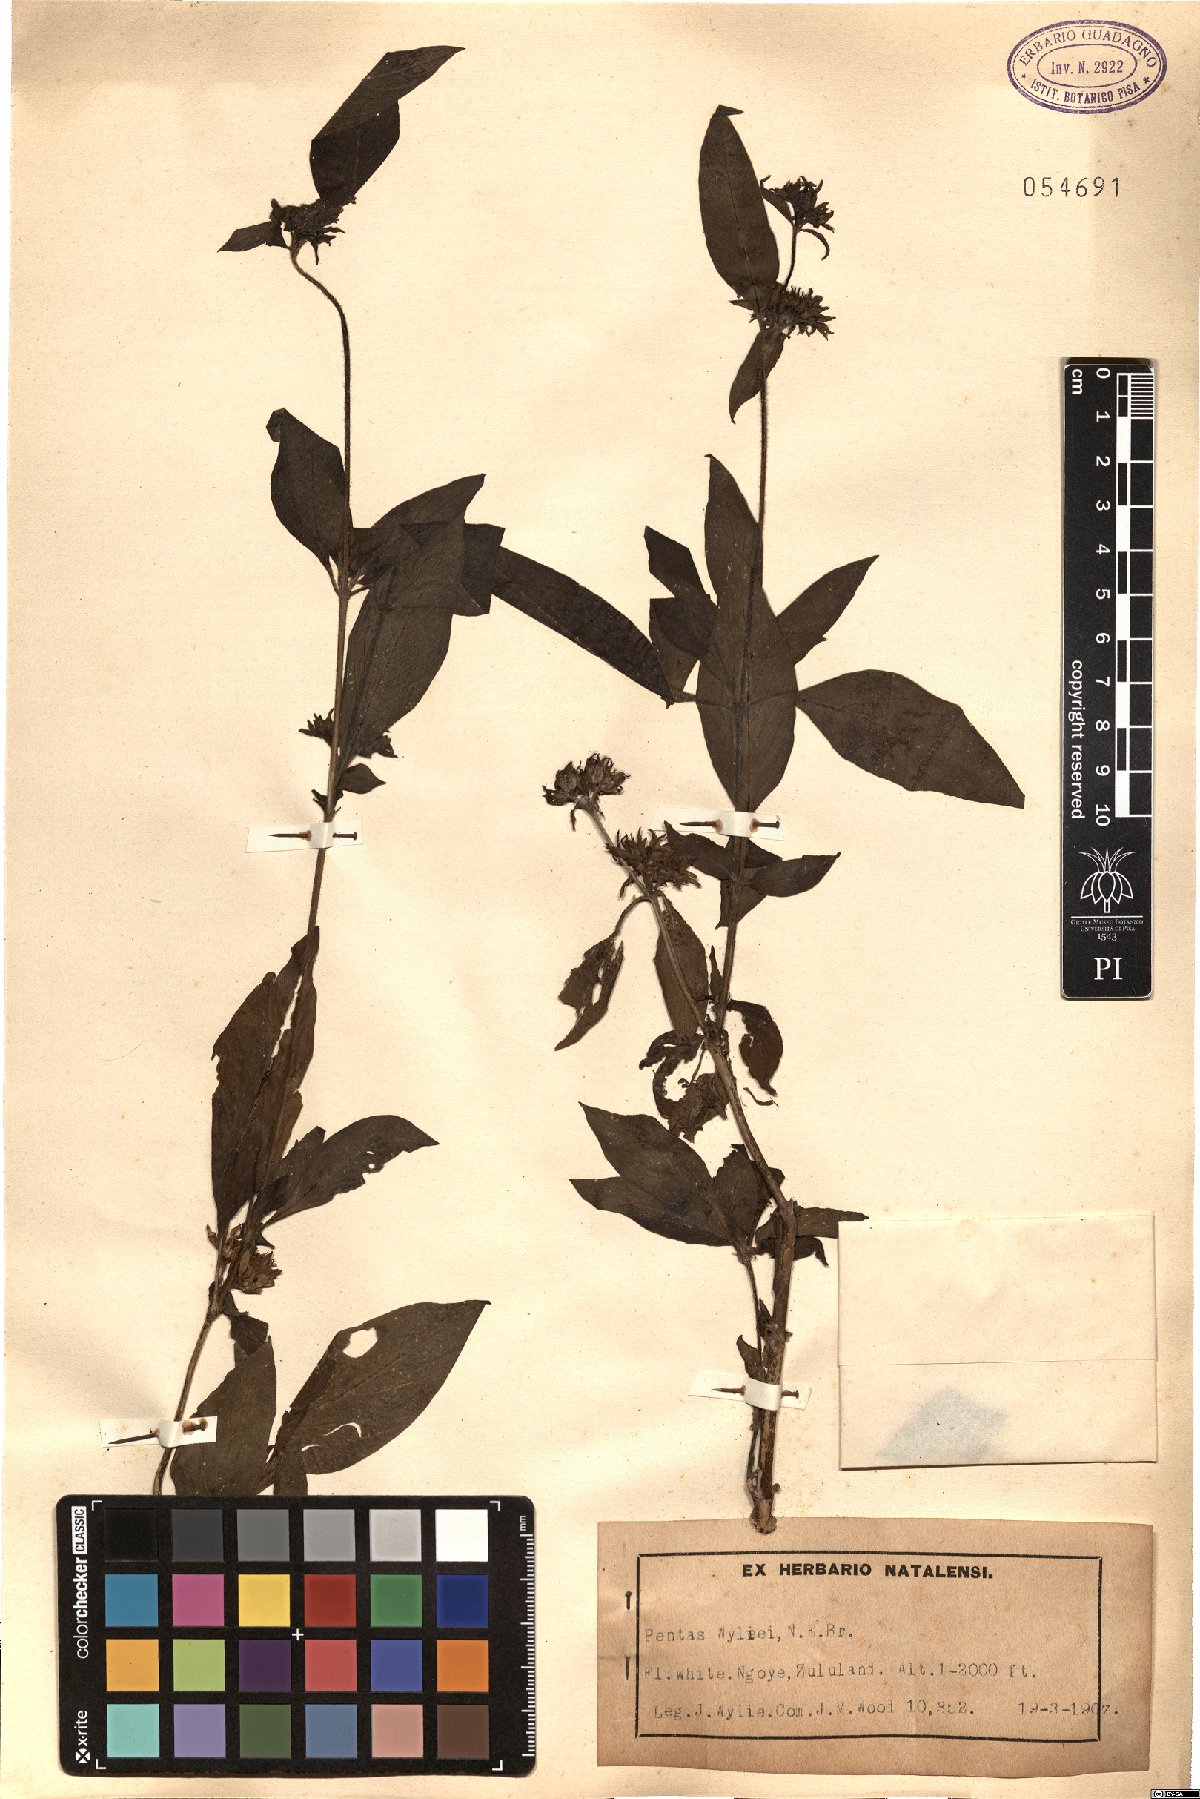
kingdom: Plantae
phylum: Tracheophyta
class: Magnoliopsida
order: Gentianales
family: Rubiaceae
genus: Pentas
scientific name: Pentas micrantha
